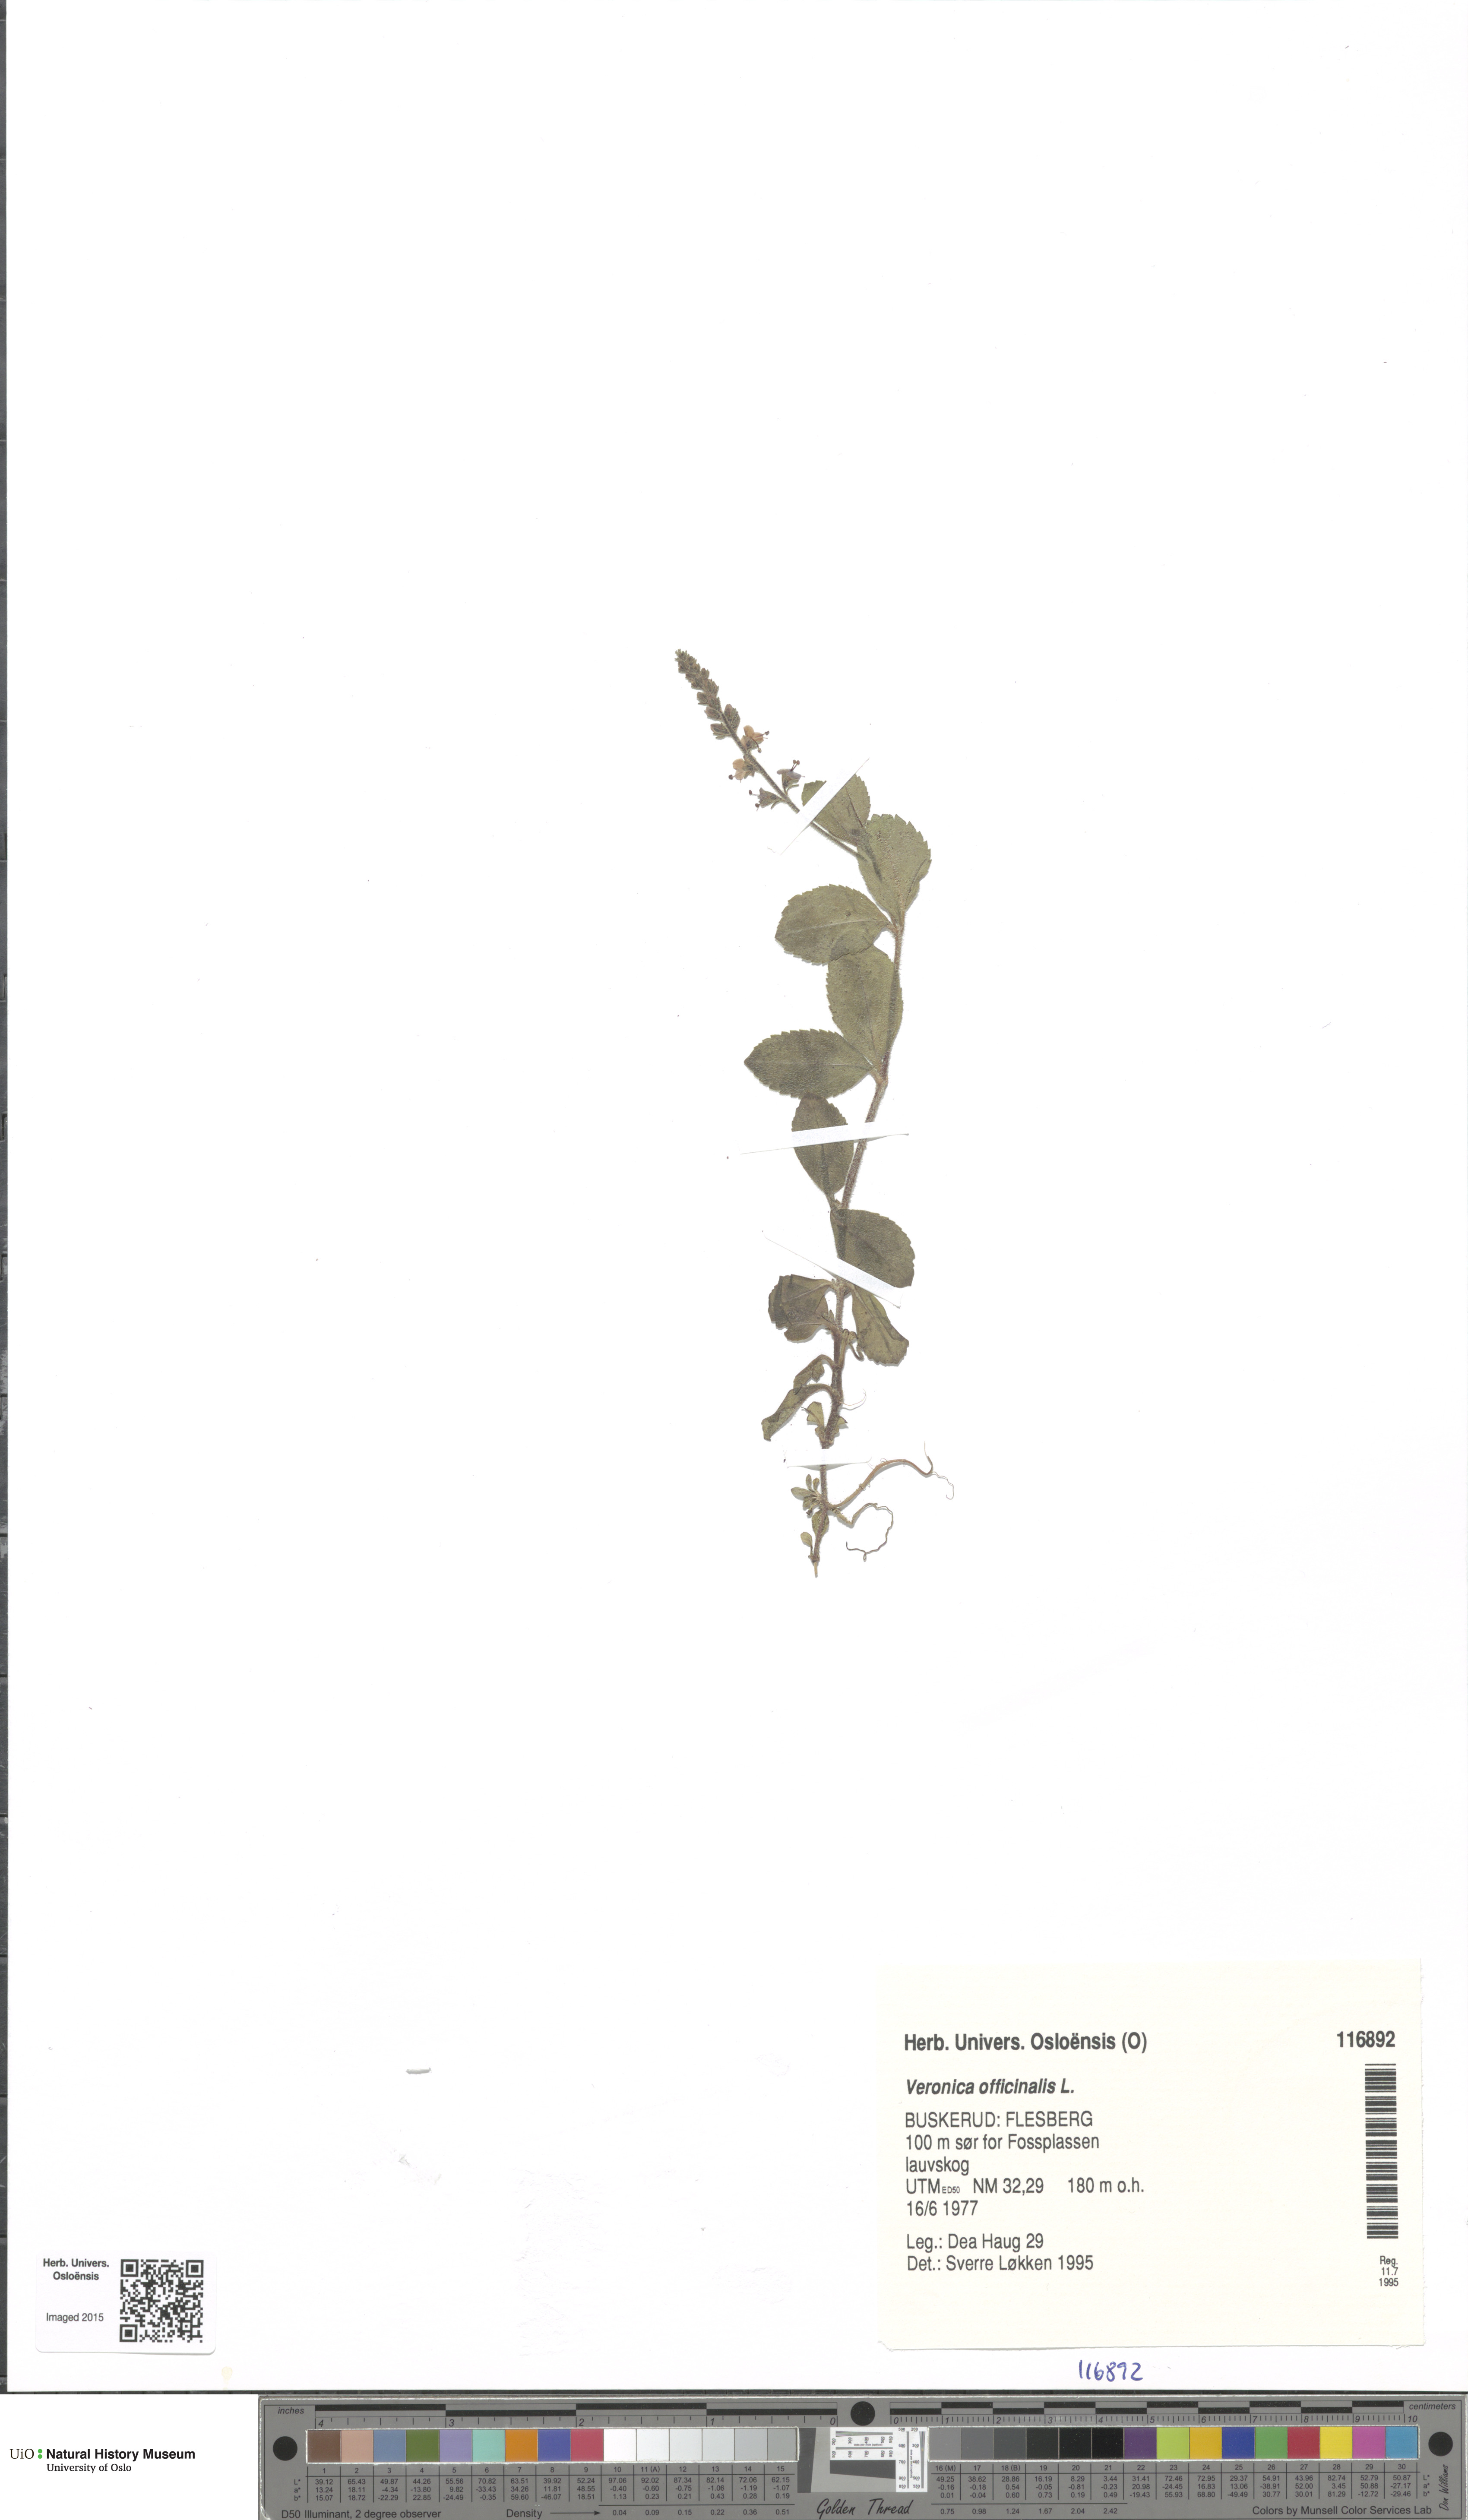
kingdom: Plantae
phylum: Tracheophyta
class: Magnoliopsida
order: Lamiales
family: Plantaginaceae
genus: Veronica
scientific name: Veronica officinalis
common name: Common speedwell
